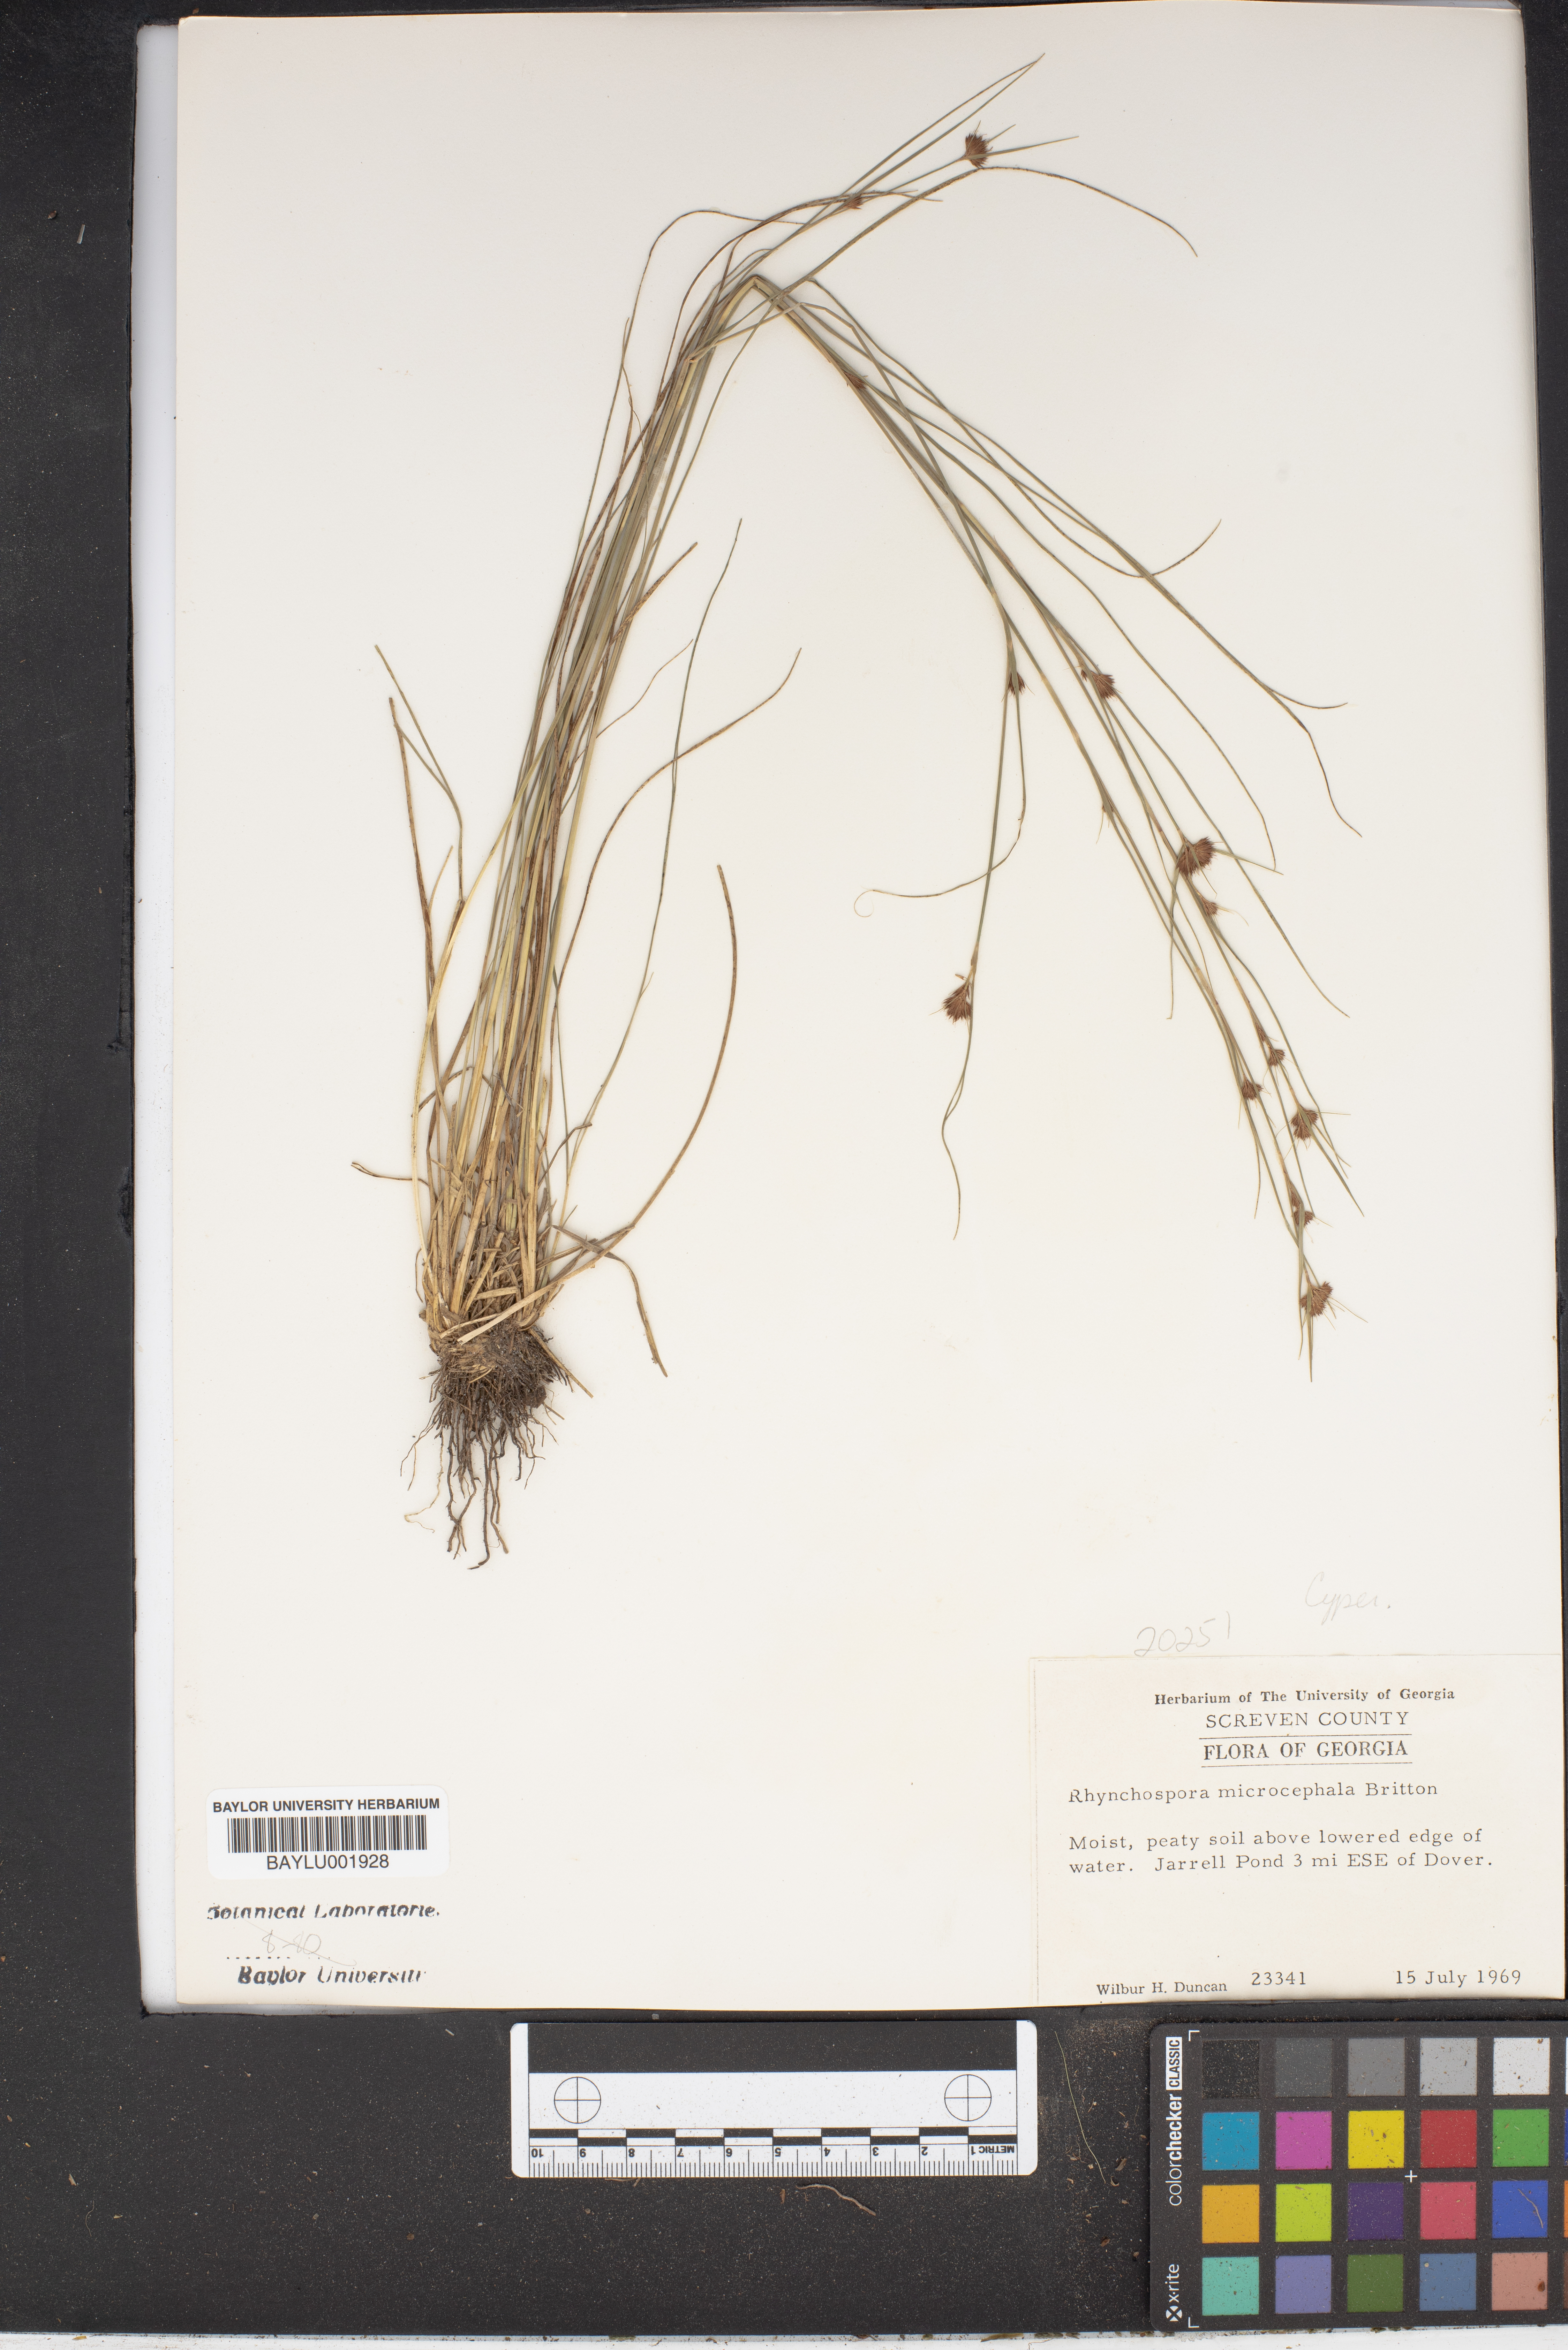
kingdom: Plantae
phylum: Tracheophyta
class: Liliopsida
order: Poales
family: Cyperaceae
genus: Rhynchospora
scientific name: Rhynchospora microcephala
